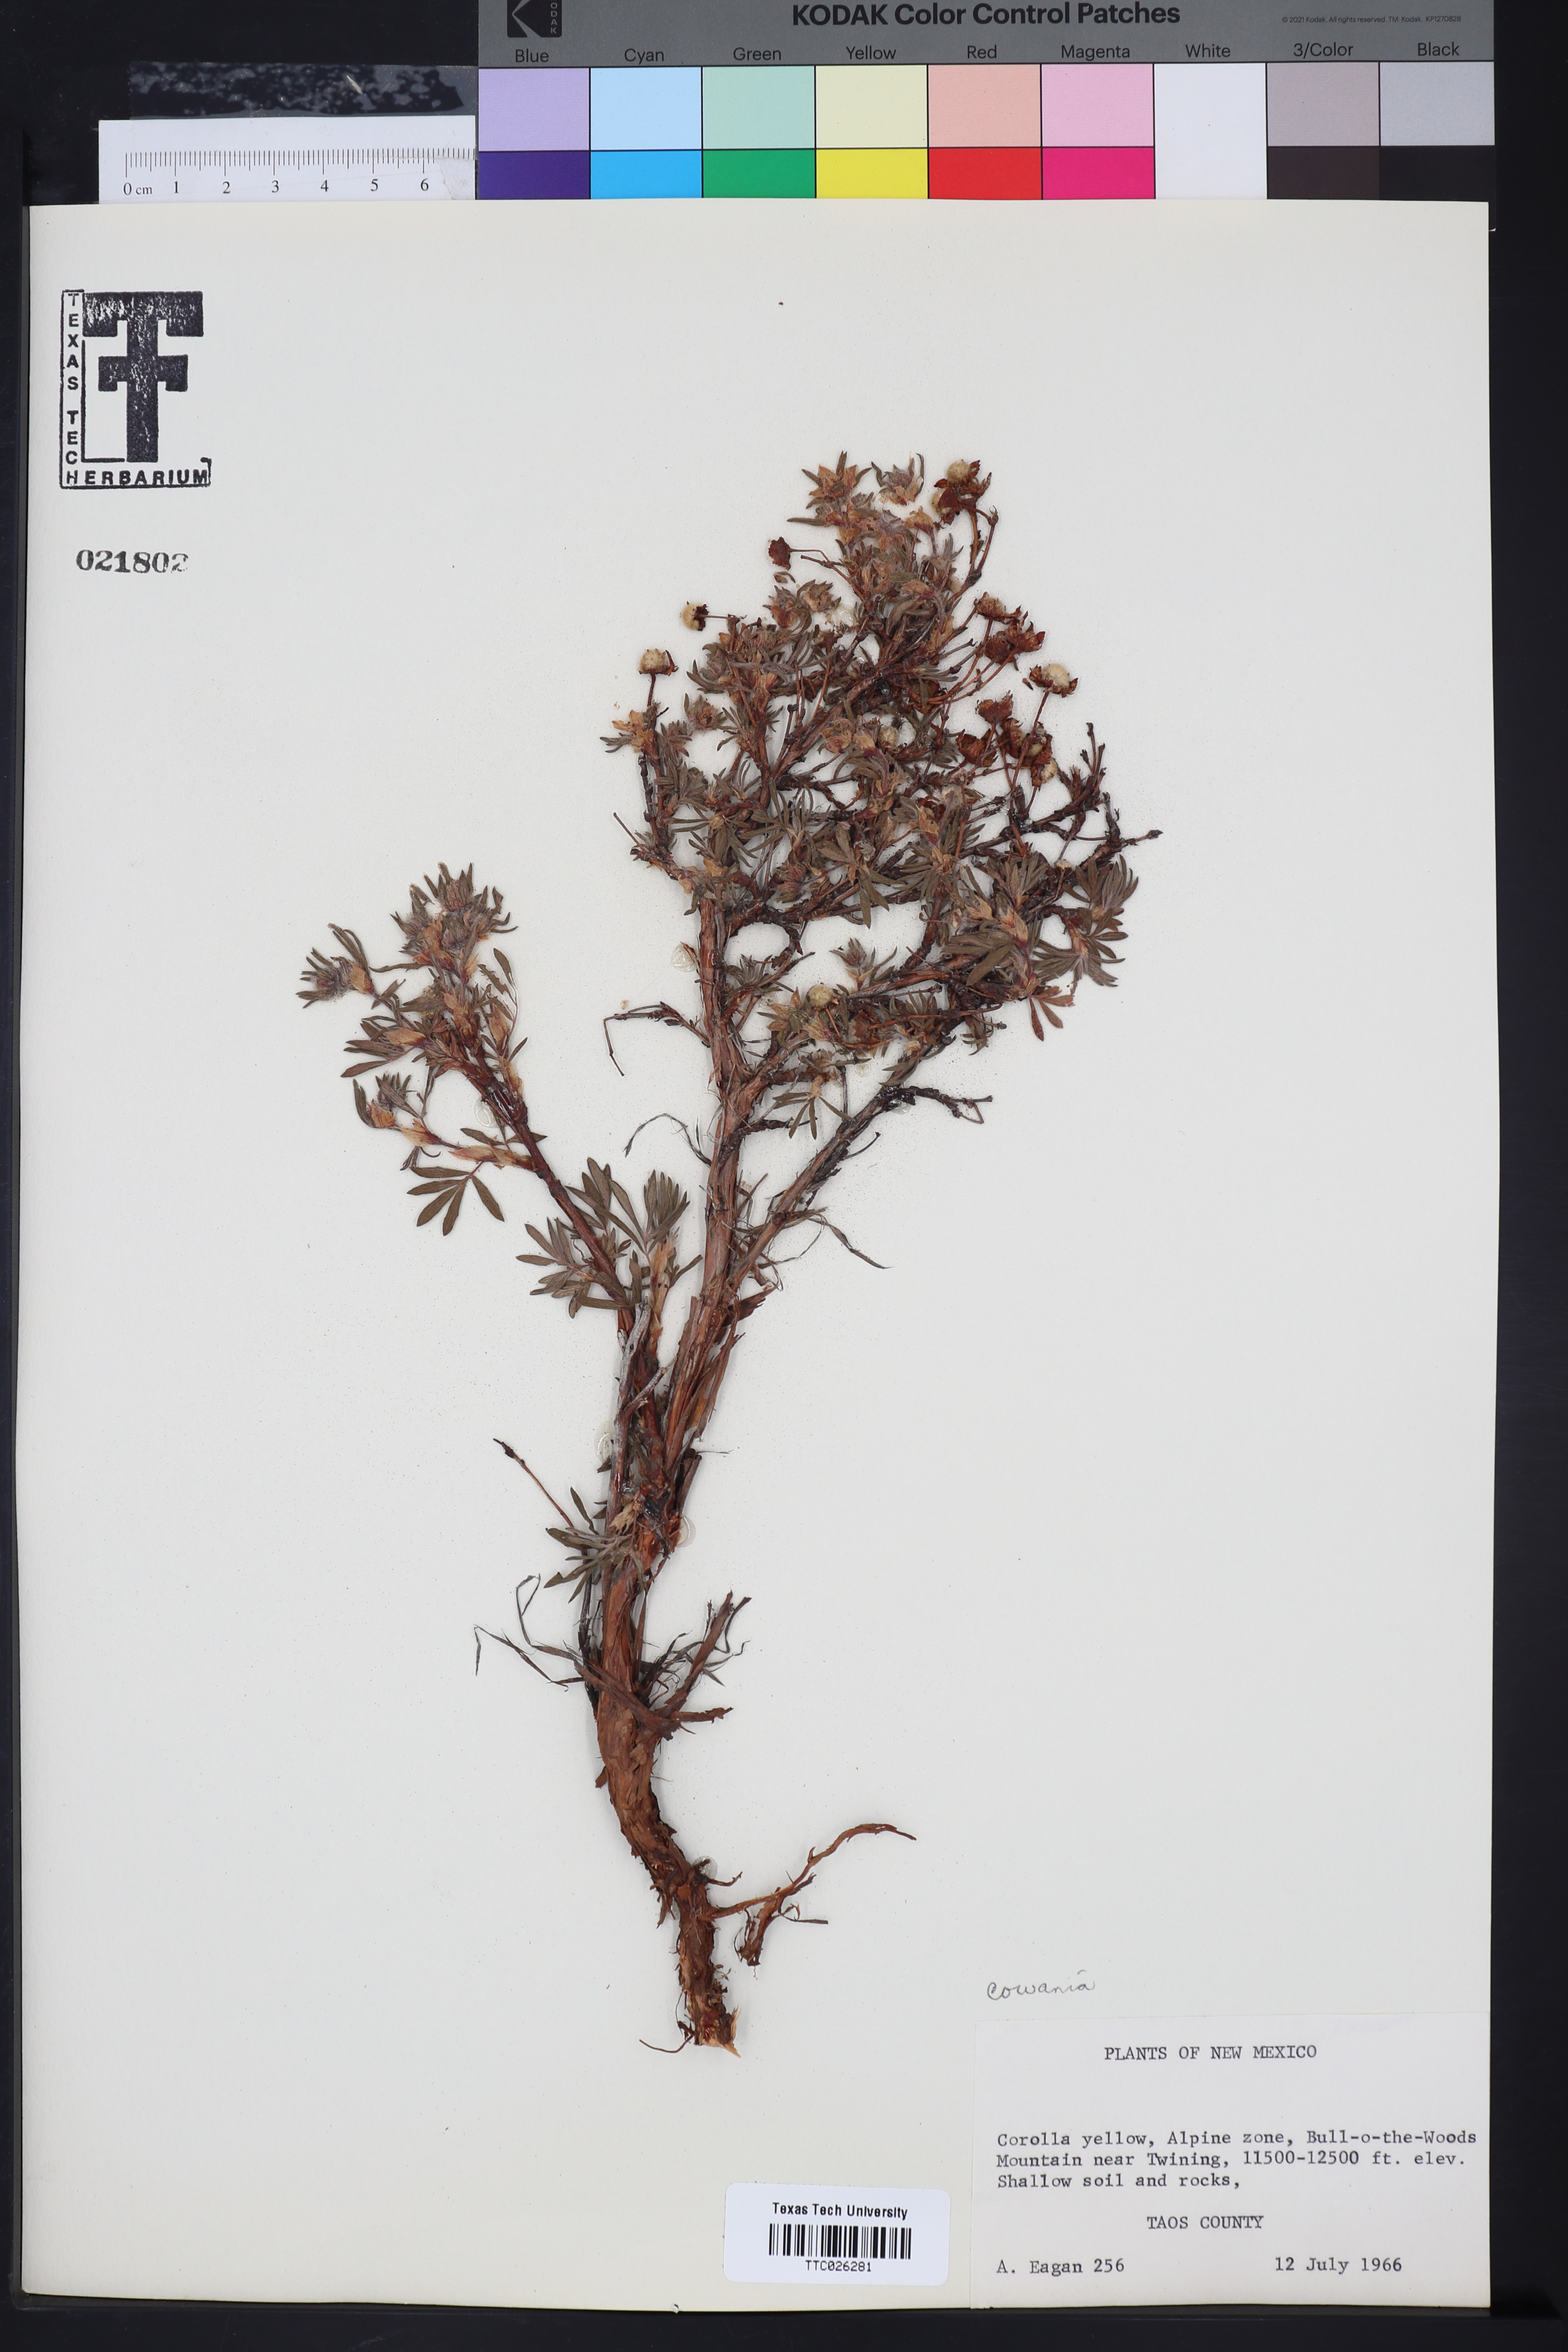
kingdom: Plantae
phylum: Tracheophyta
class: Magnoliopsida
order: Rosales
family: Rosaceae
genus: Purshia
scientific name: Purshia
